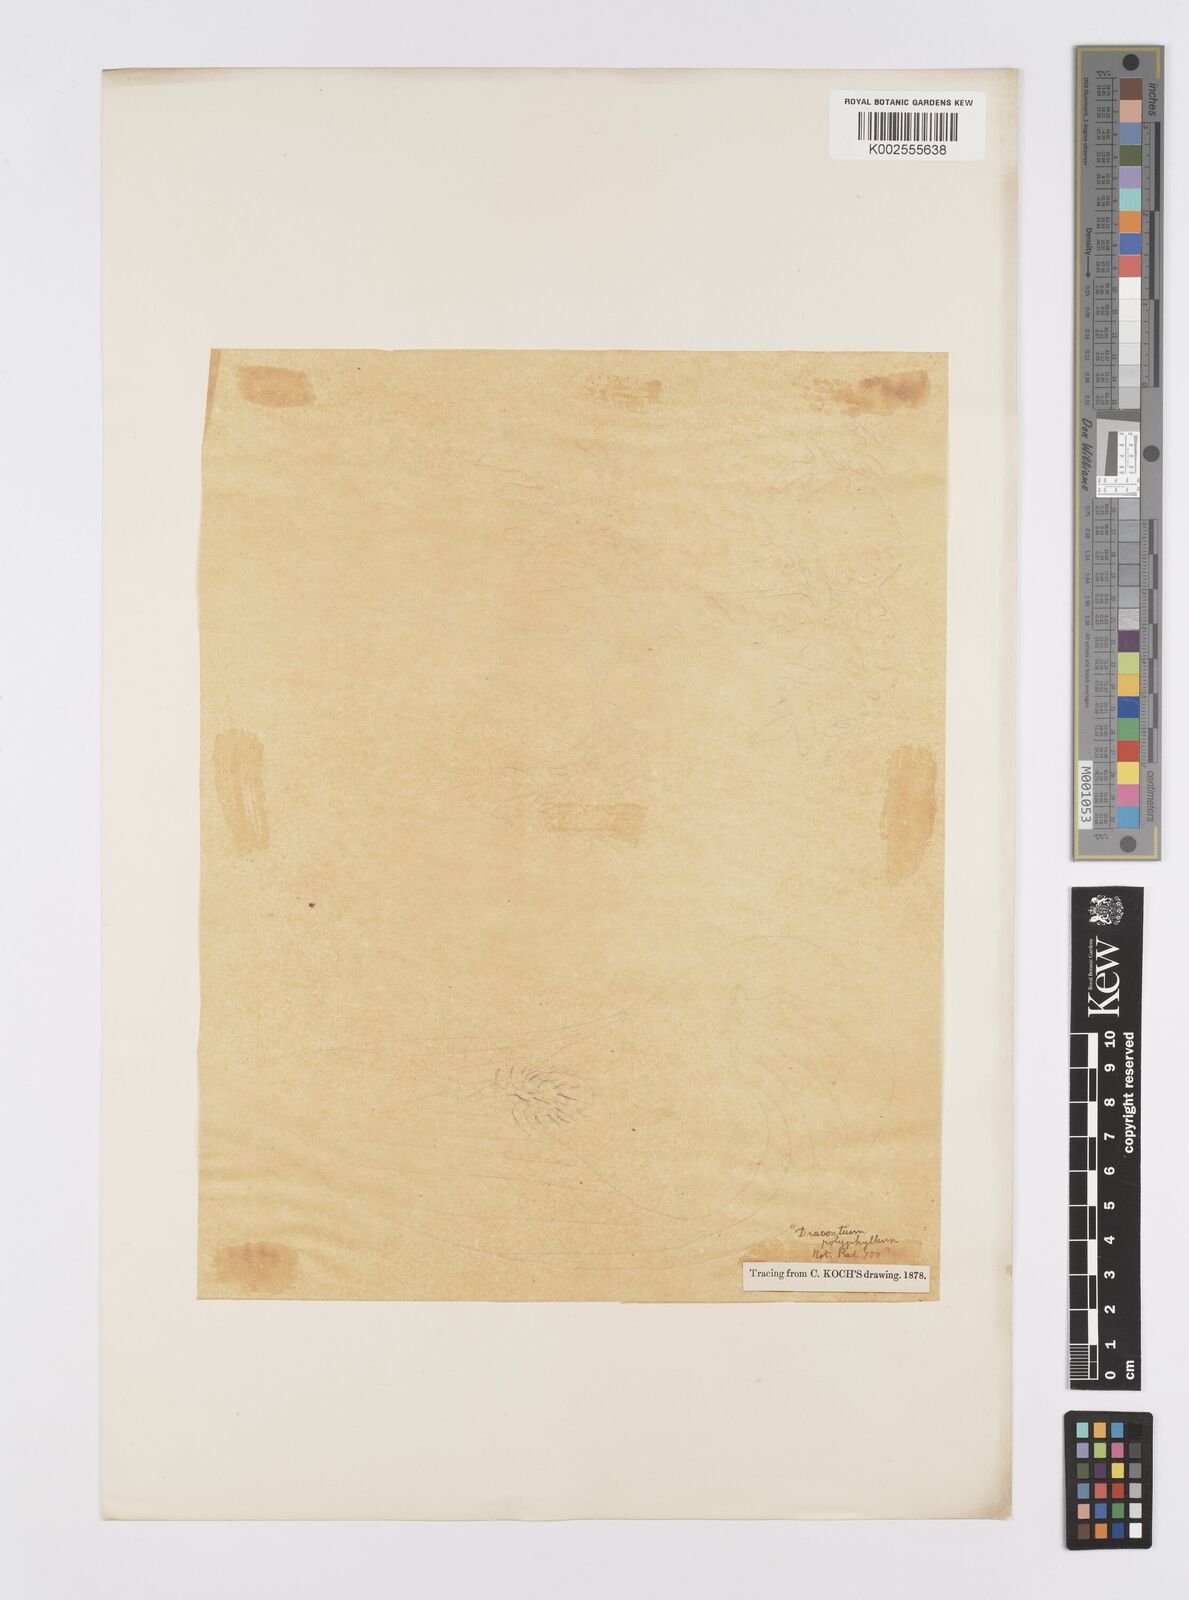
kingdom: Plantae
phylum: Tracheophyta
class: Liliopsida
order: Alismatales
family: Araceae
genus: Dracontium
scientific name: Dracontium polyphyllum
